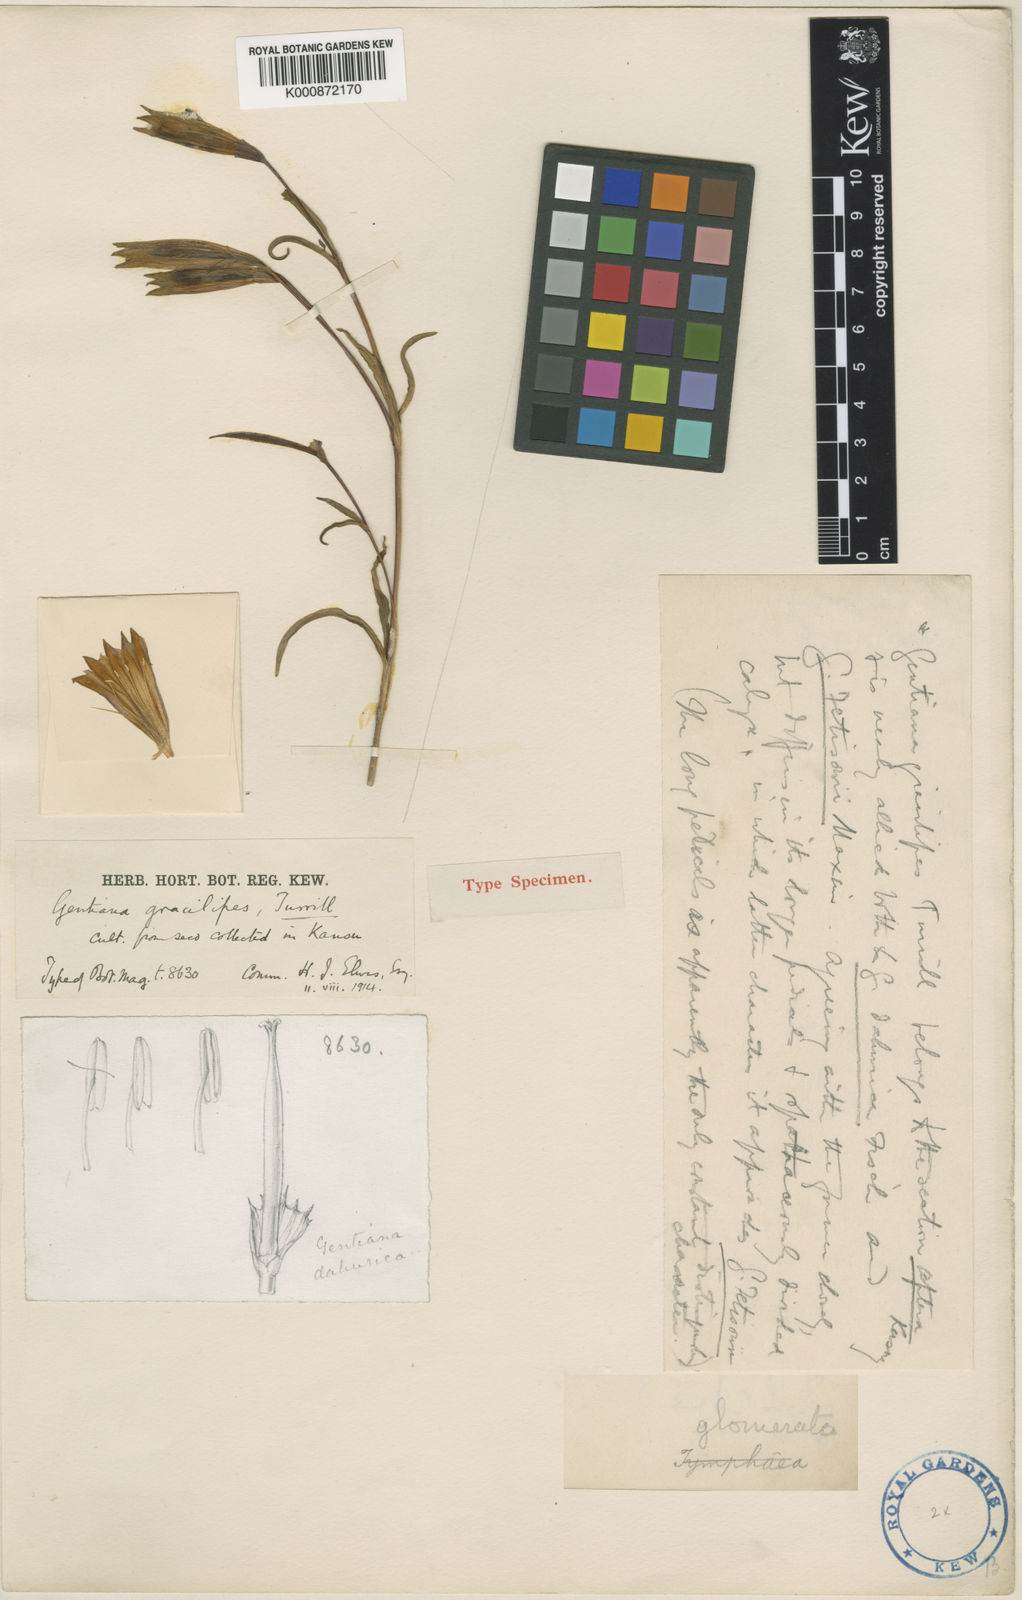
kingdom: Plantae
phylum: Tracheophyta
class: Magnoliopsida
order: Gentianales
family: Gentianaceae
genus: Gentiana
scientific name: Gentiana dahurica
